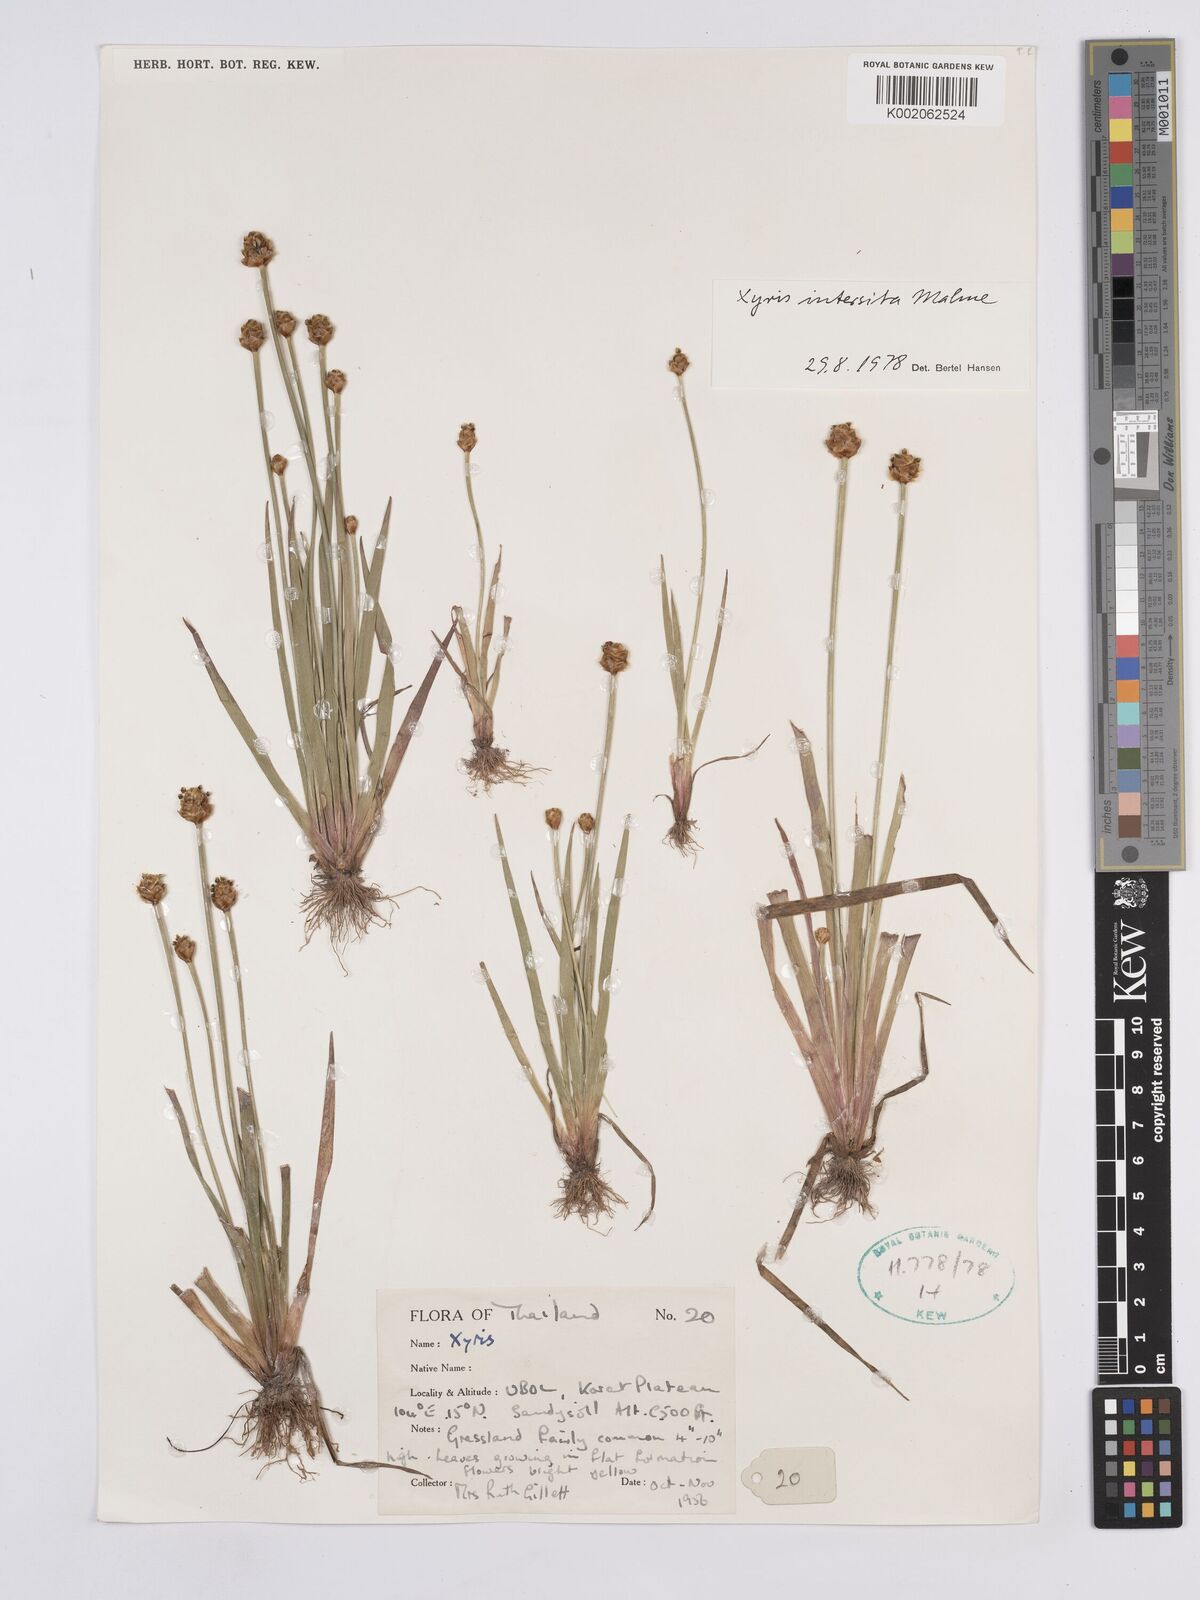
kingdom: Plantae
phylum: Tracheophyta
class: Liliopsida
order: Poales
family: Xyridaceae
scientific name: Xyridaceae
